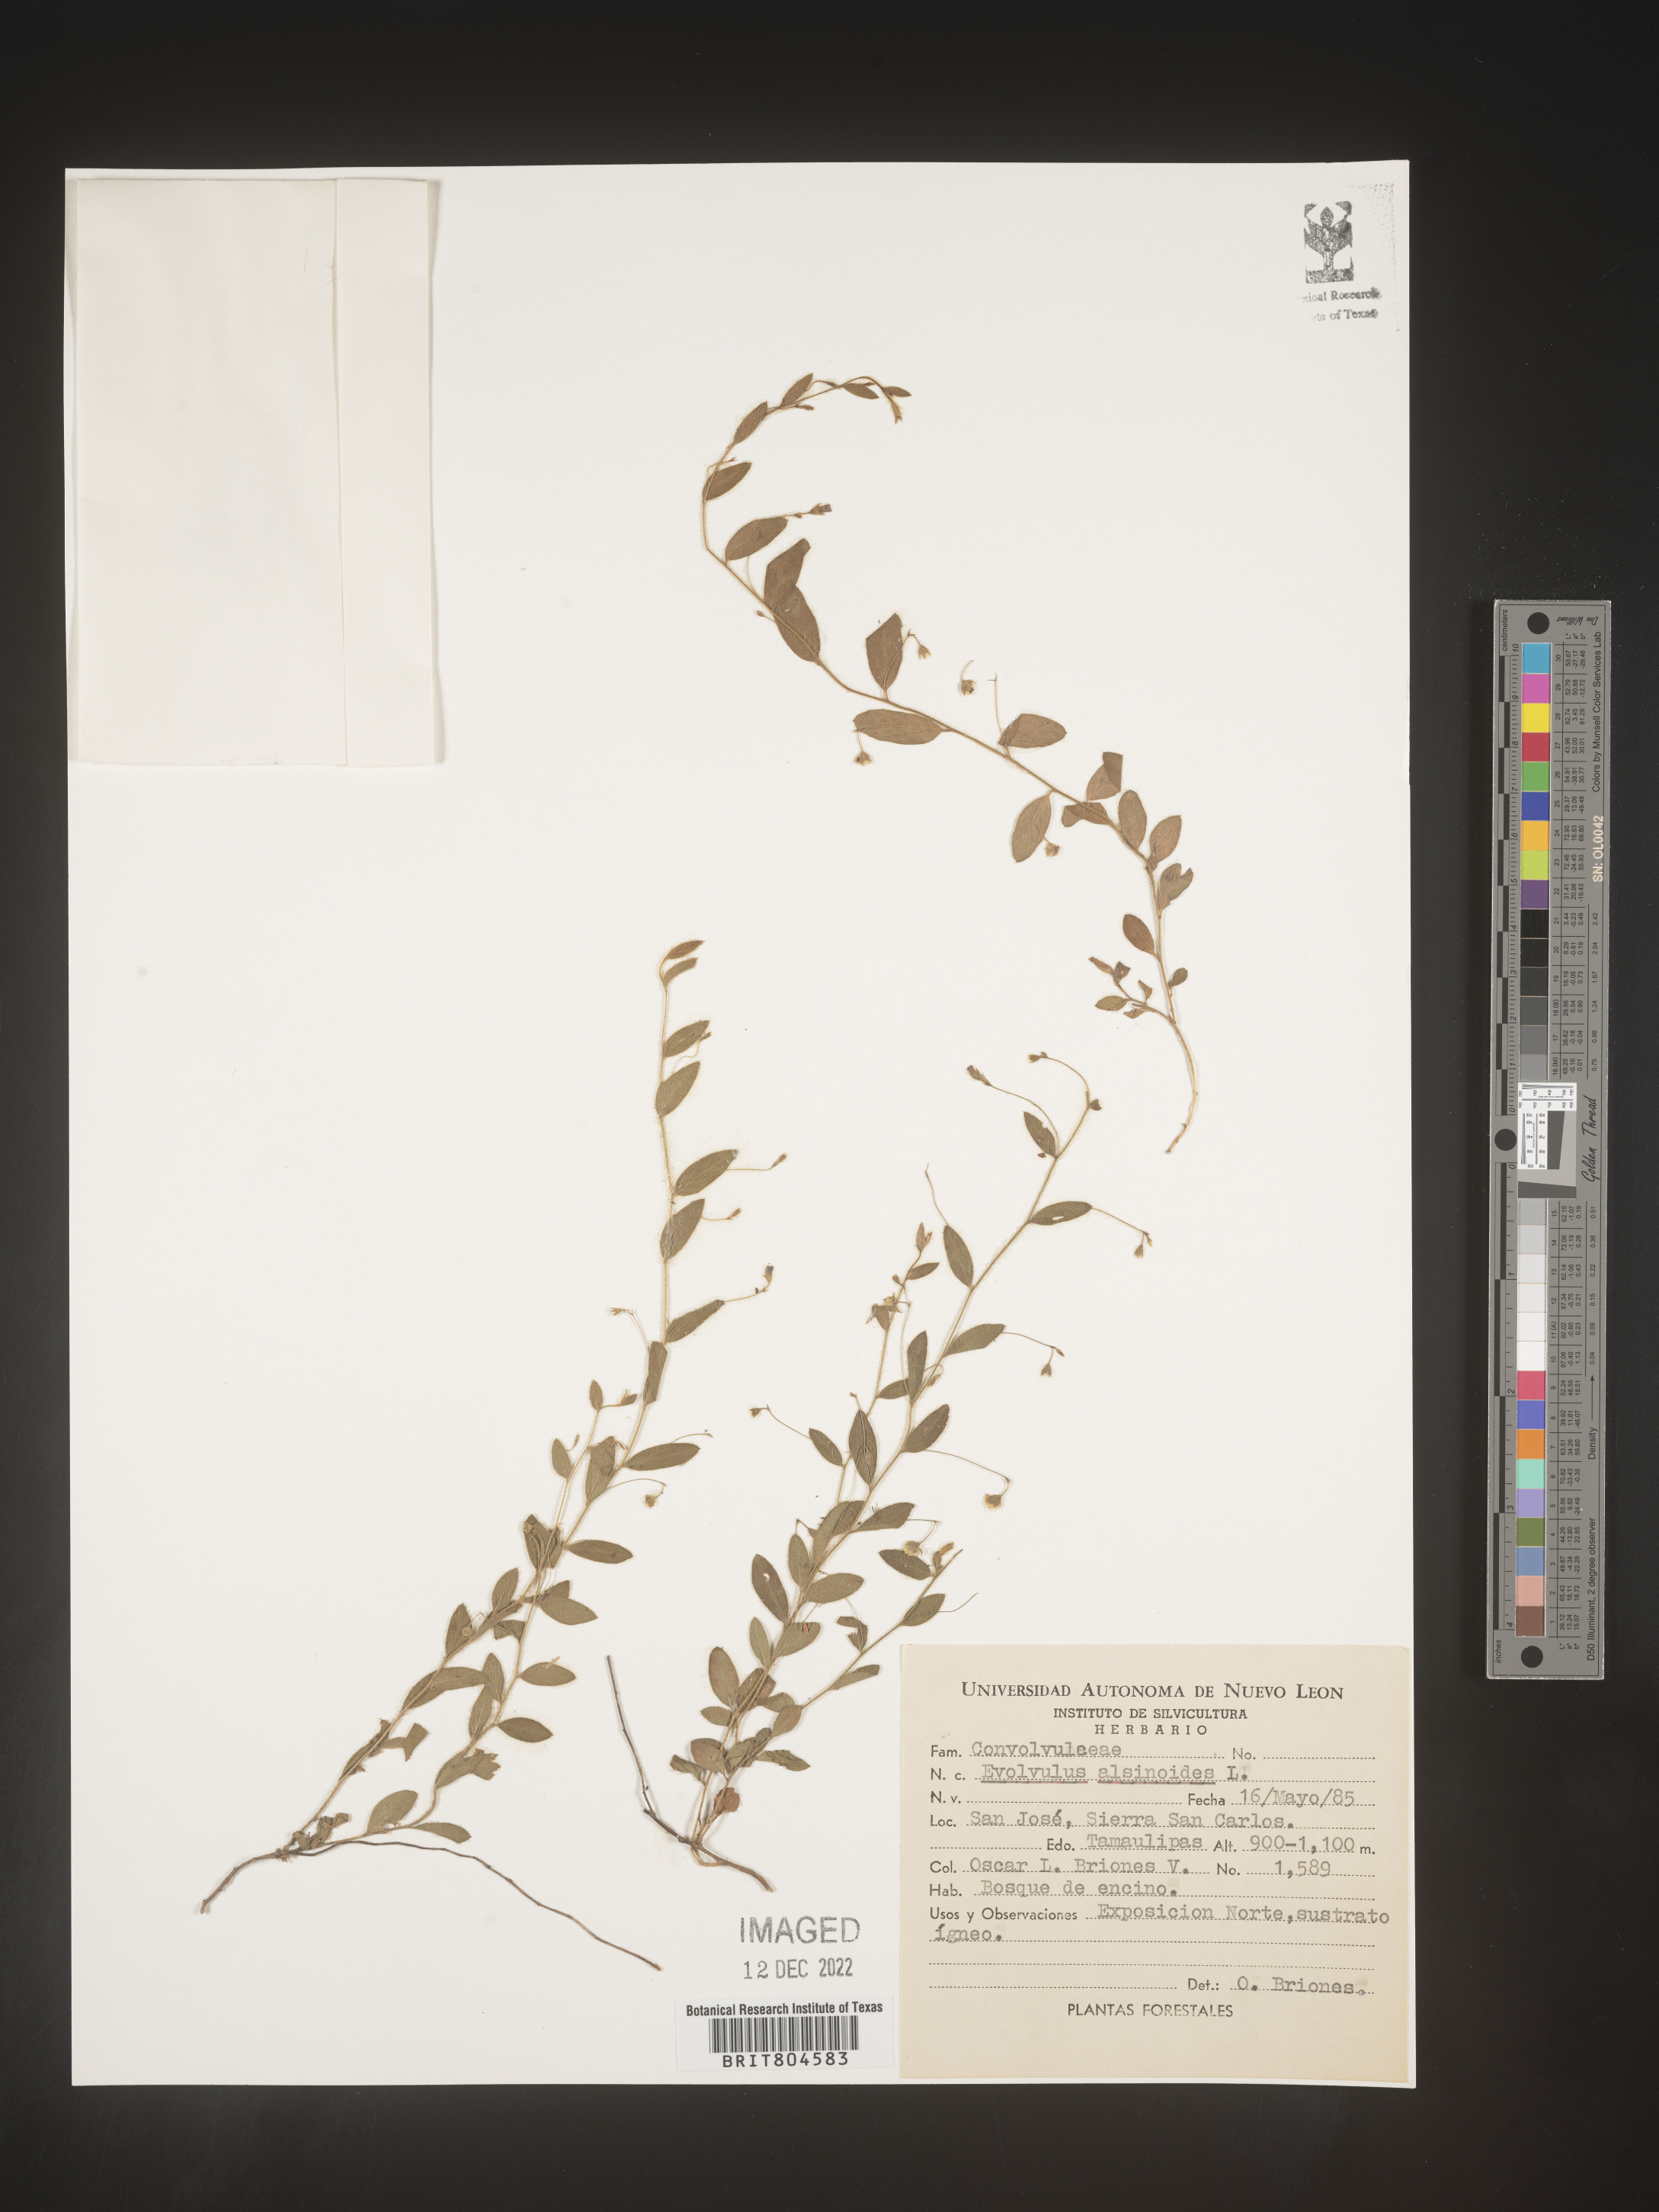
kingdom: Plantae
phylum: Tracheophyta
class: Magnoliopsida
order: Solanales
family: Convolvulaceae
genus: Evolvulus
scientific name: Evolvulus
